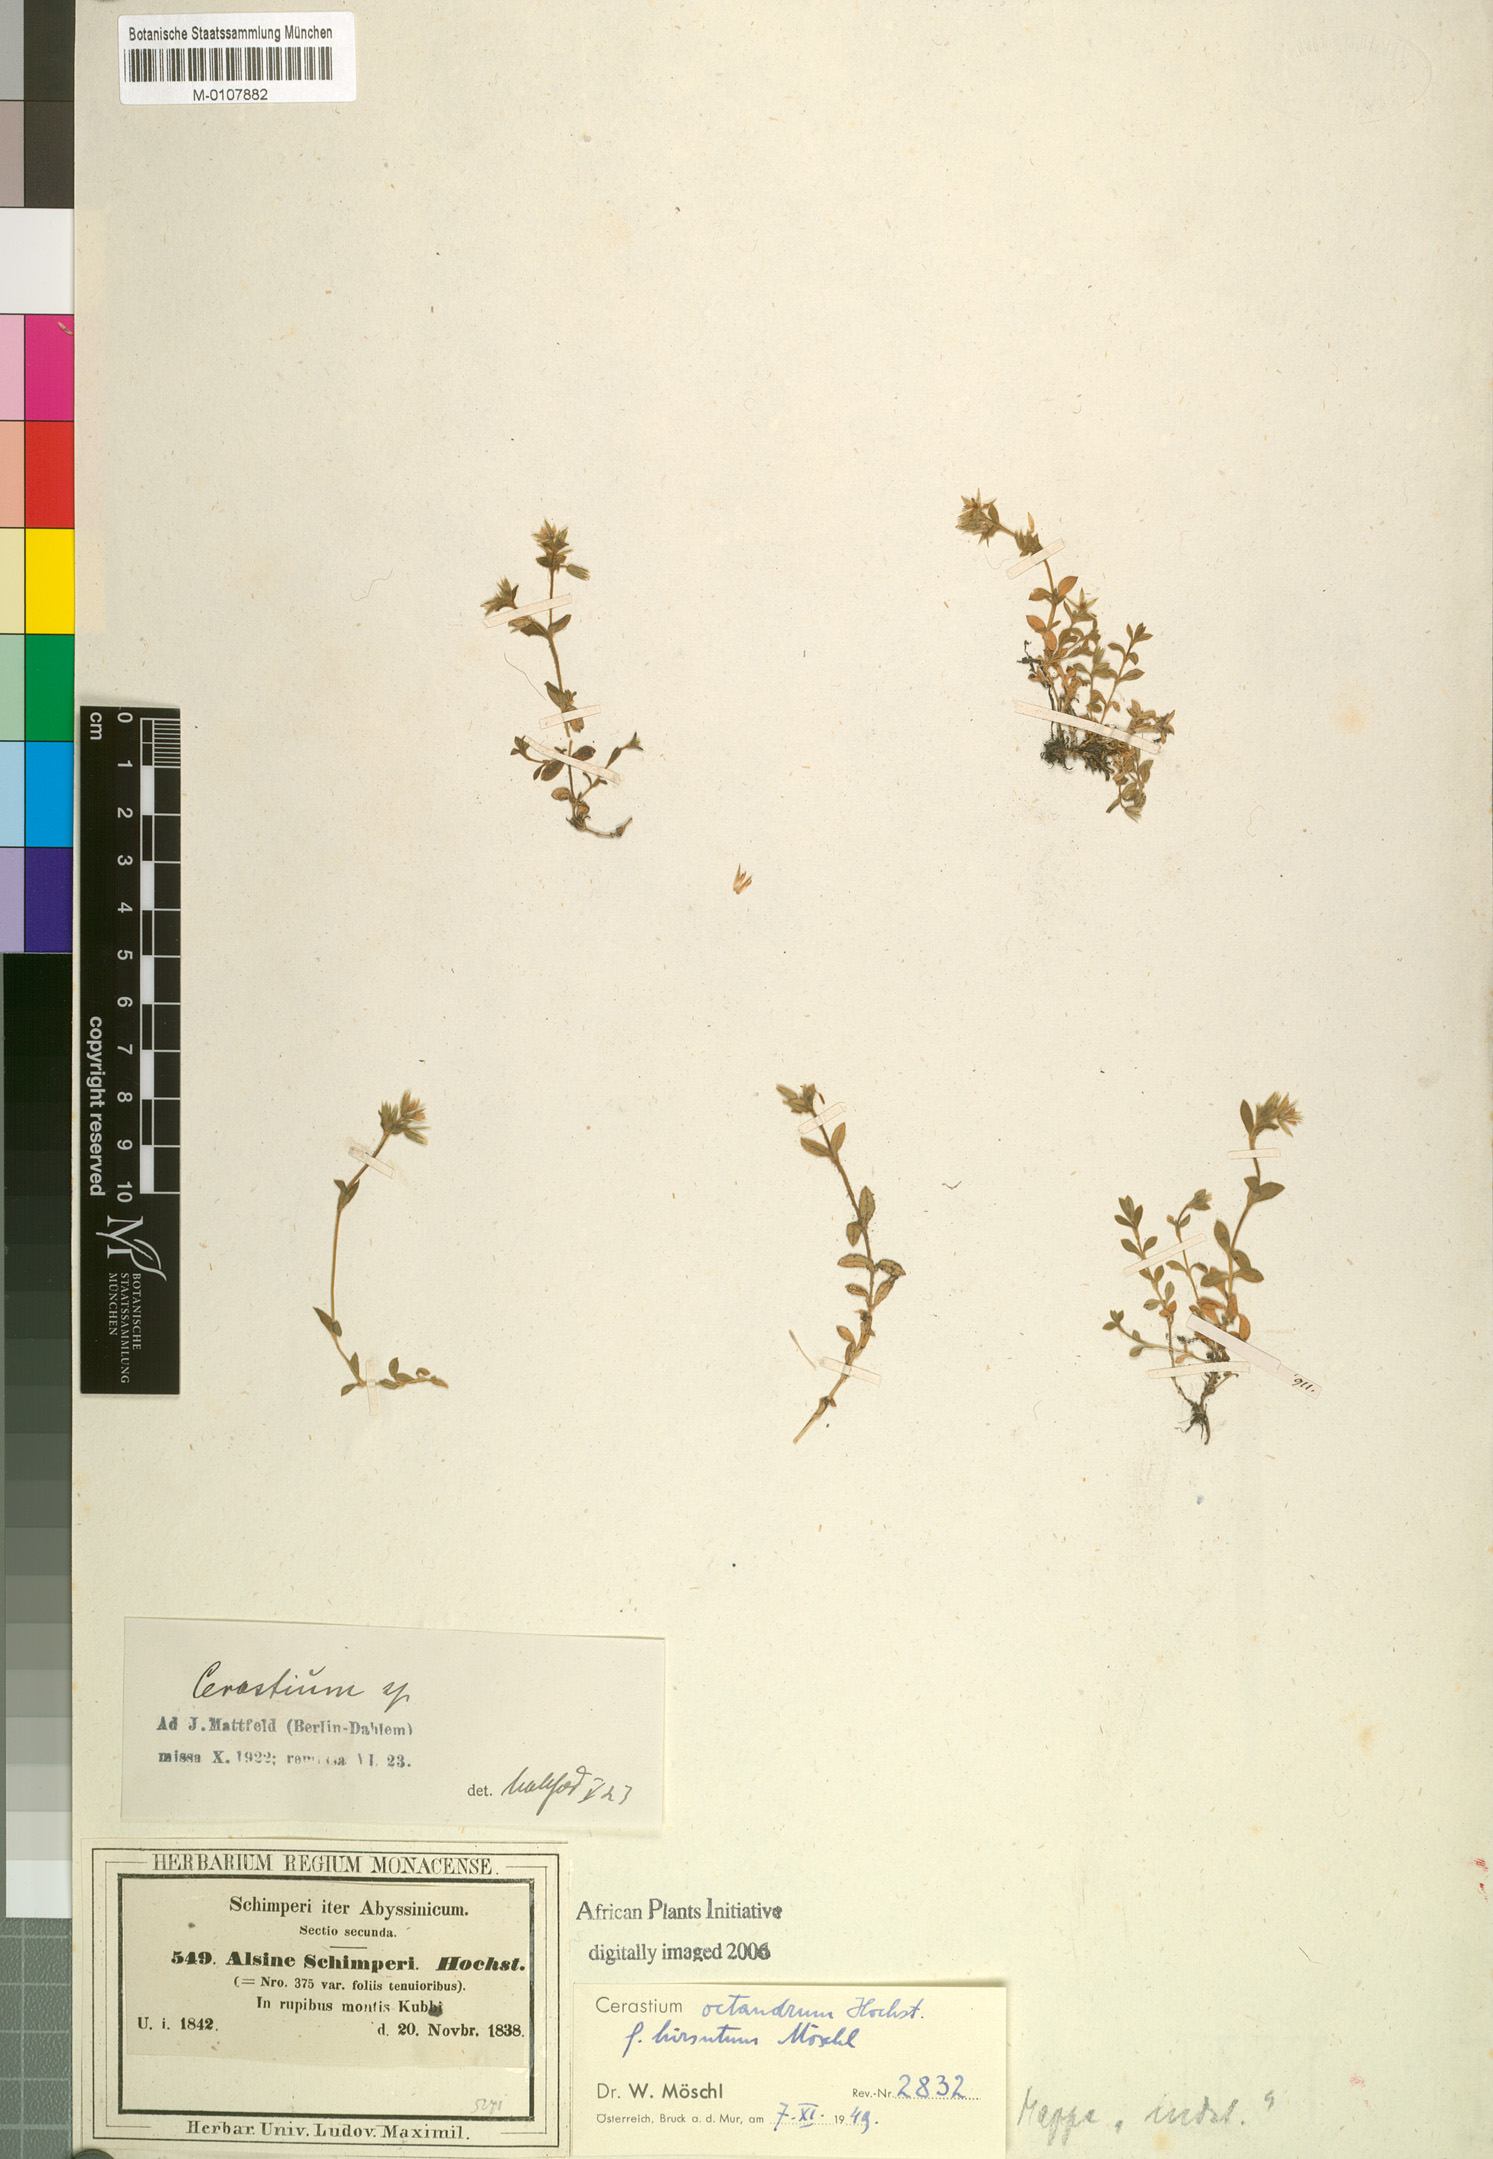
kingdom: Plantae
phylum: Tracheophyta
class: Magnoliopsida
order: Caryophyllales
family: Caryophyllaceae
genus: Minuartia
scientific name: Minuartia filifolia
